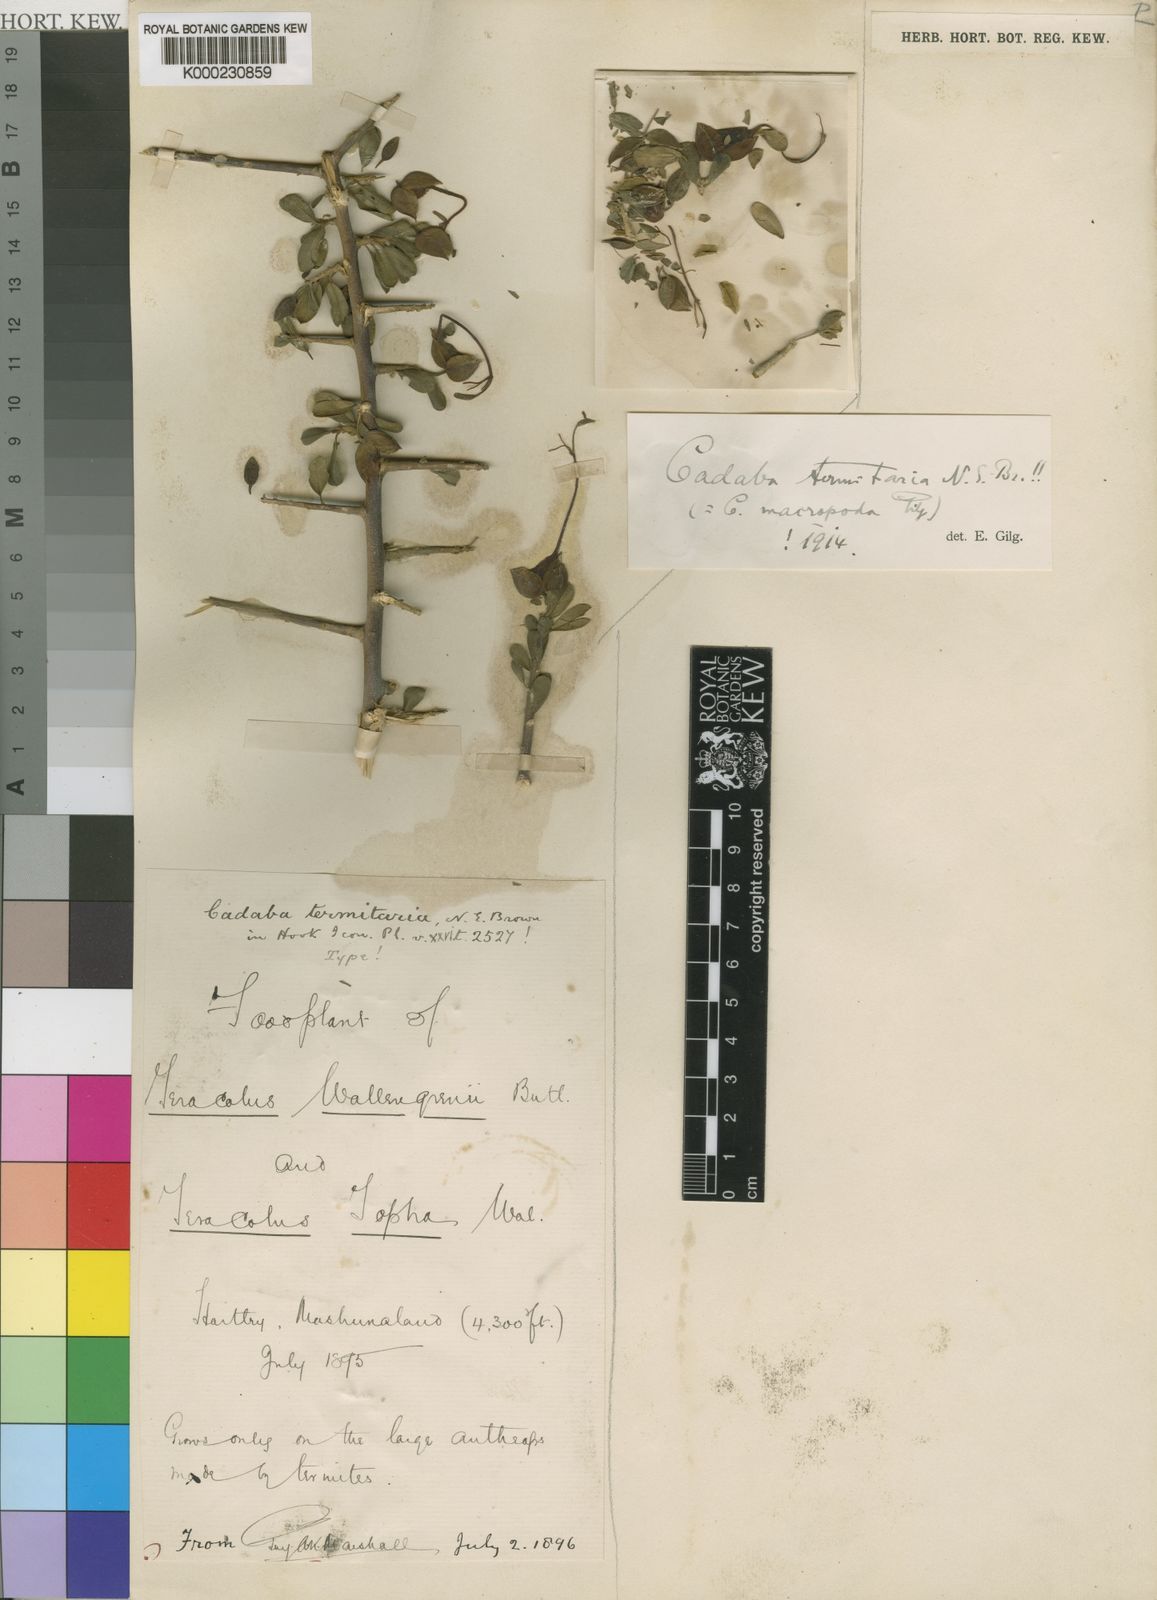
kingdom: Plantae
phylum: Tracheophyta
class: Magnoliopsida
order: Brassicales
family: Capparaceae
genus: Cadaba
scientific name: Cadaba termitaria
